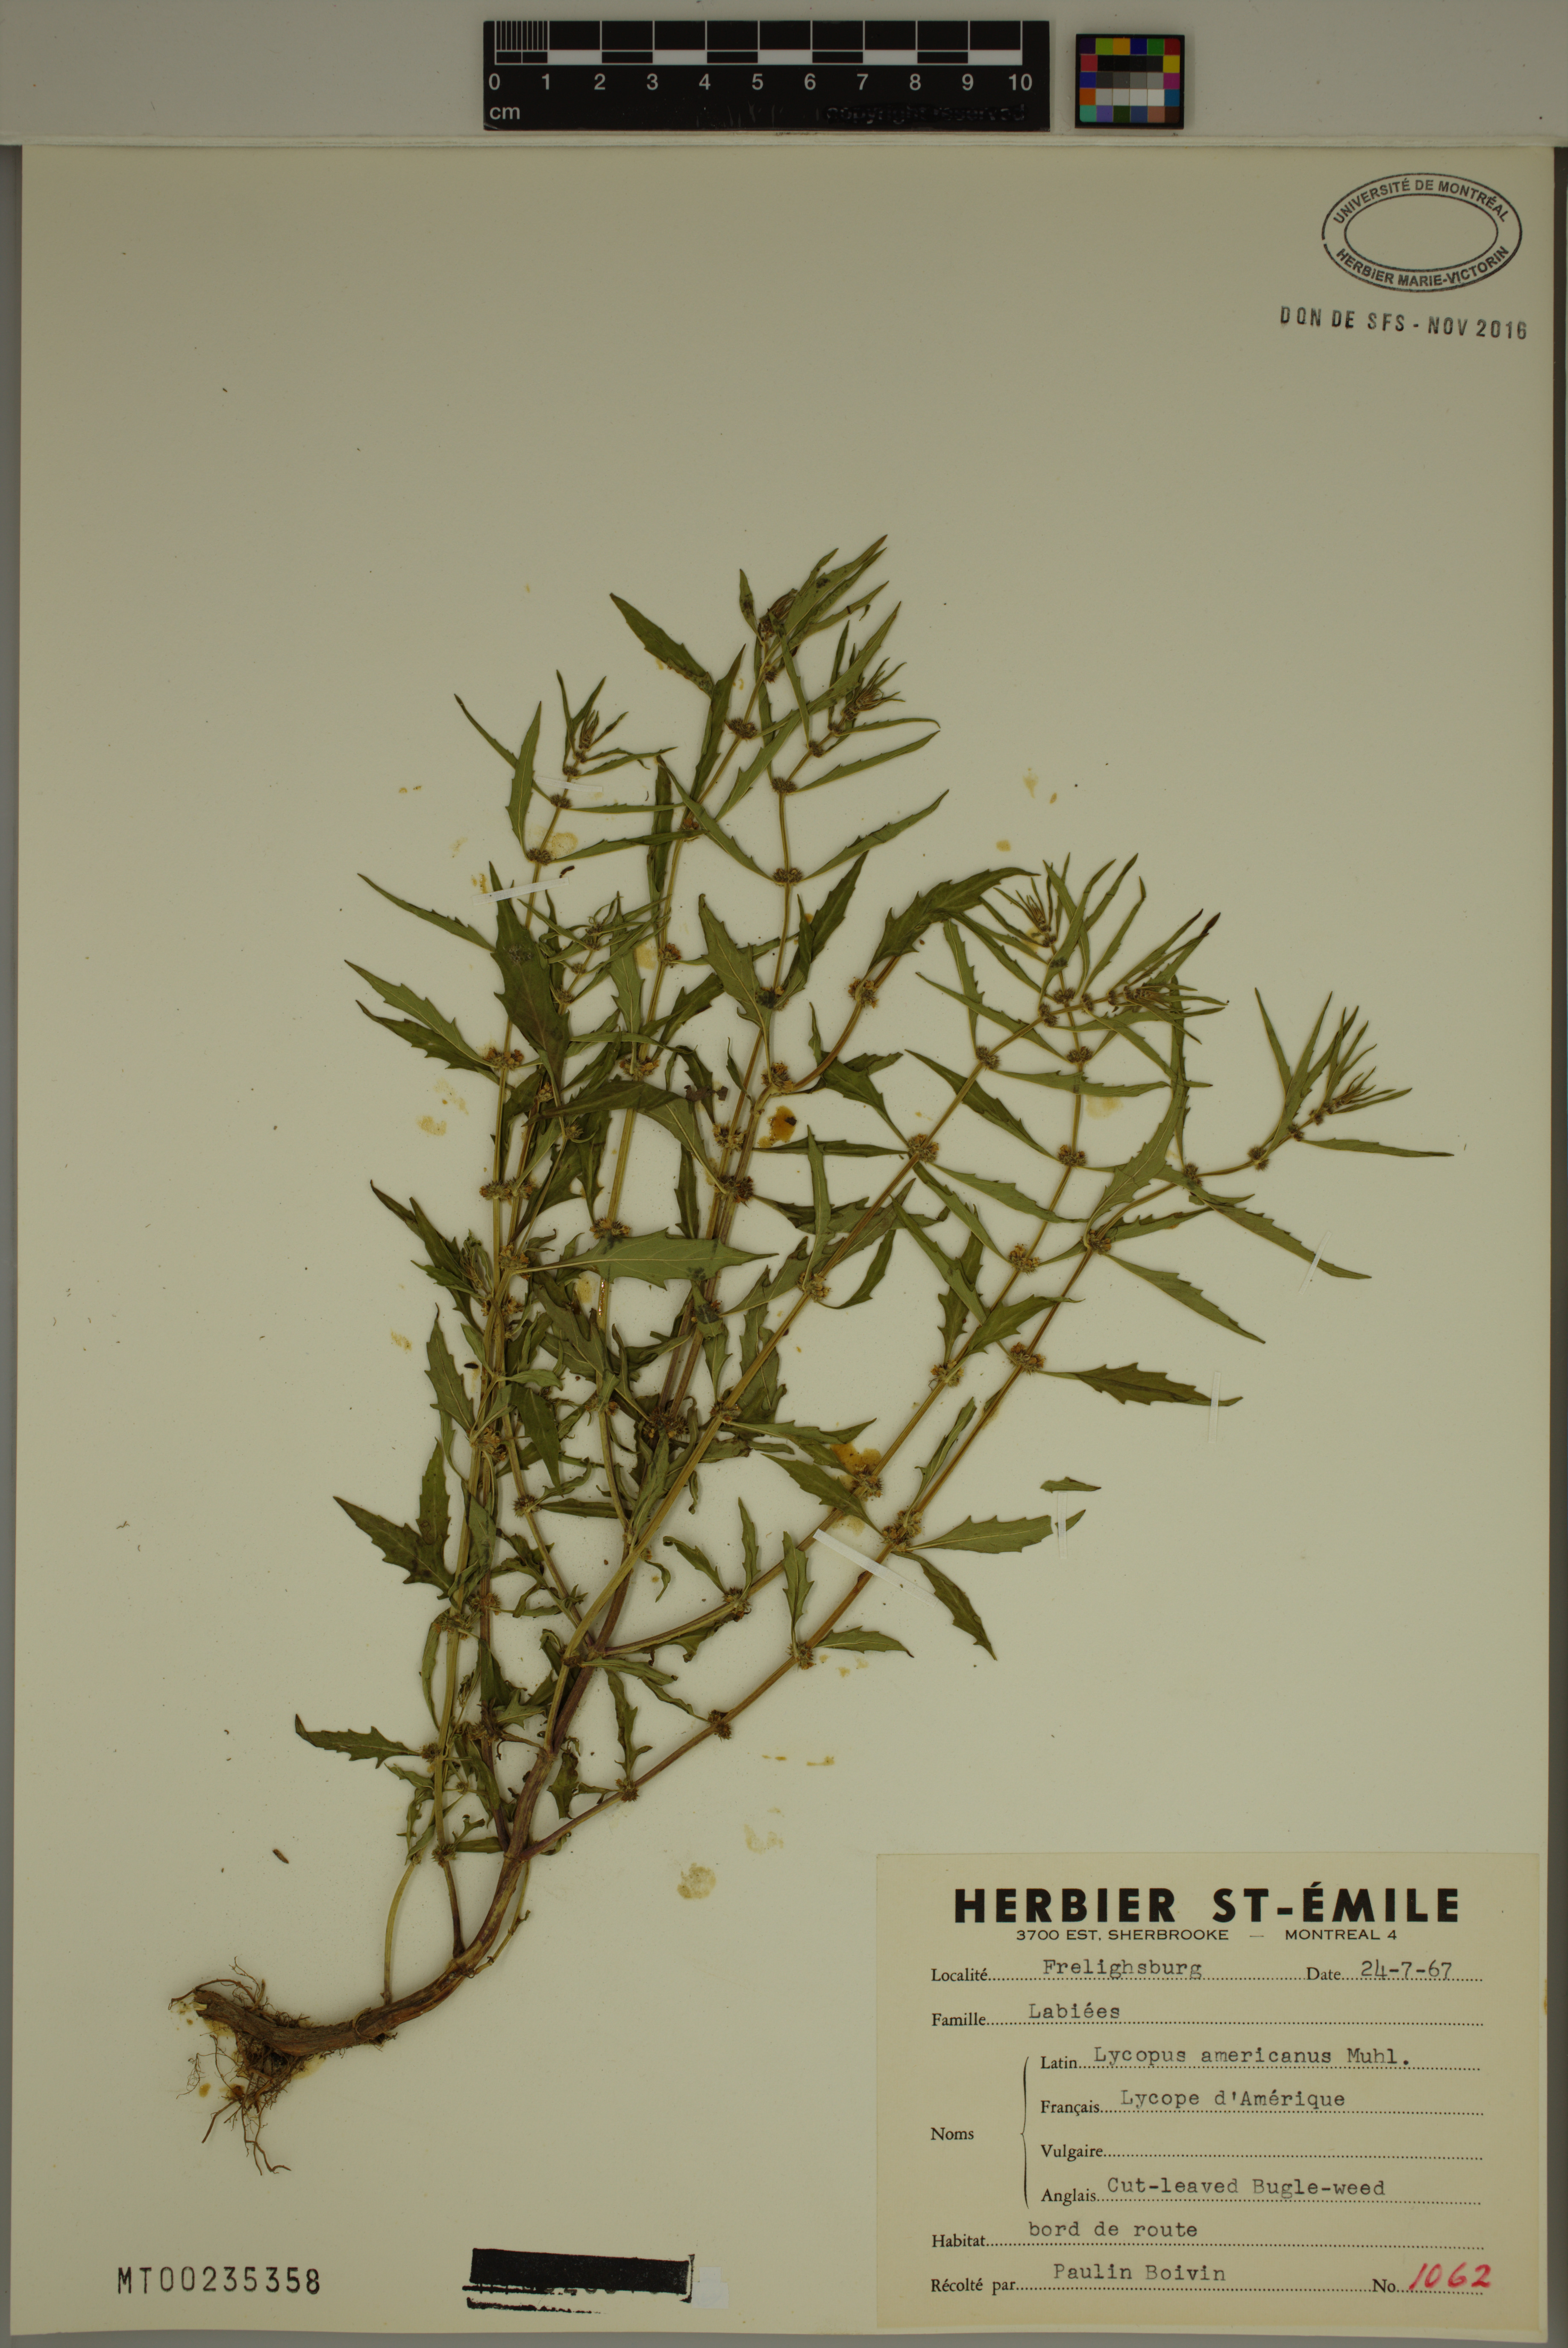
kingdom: Plantae
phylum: Tracheophyta
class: Magnoliopsida
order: Lamiales
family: Lamiaceae
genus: Lycopus
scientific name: Lycopus americanus
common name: American bugleweed
